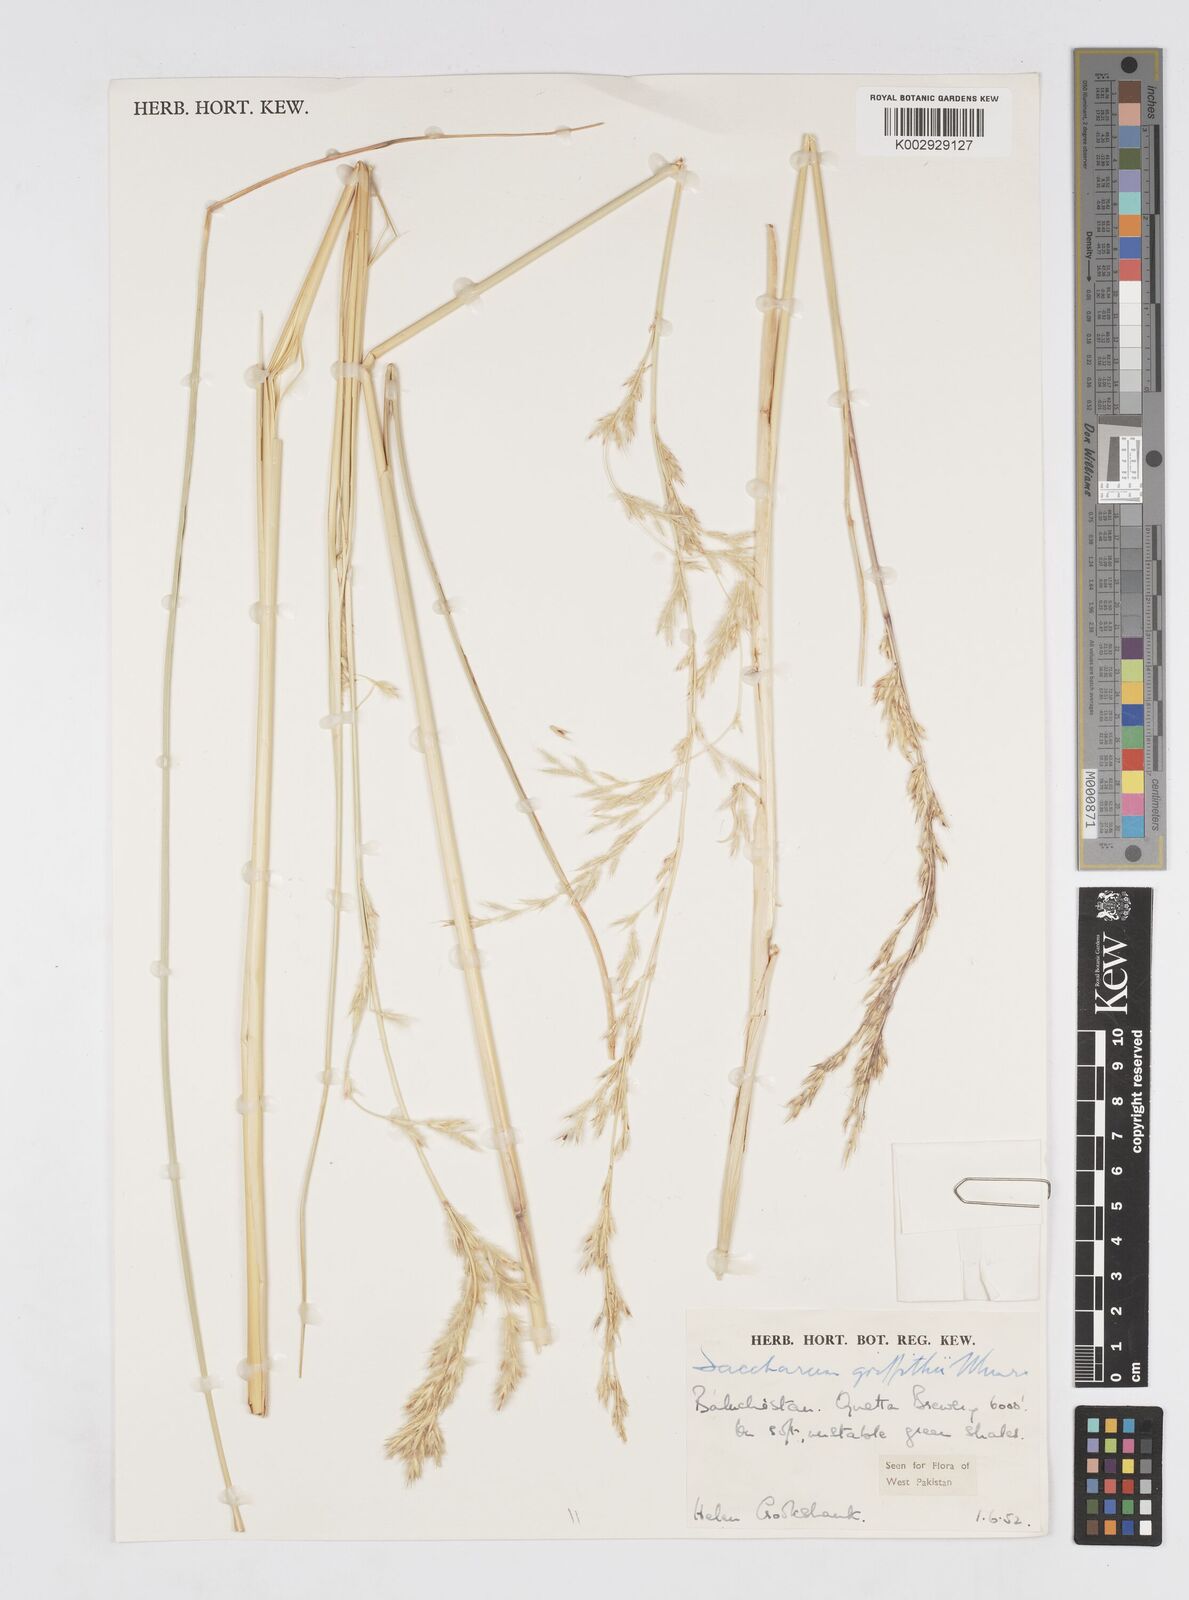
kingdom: Plantae
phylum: Tracheophyta
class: Liliopsida
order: Poales
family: Poaceae
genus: Saccharum
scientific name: Saccharum griffithii
